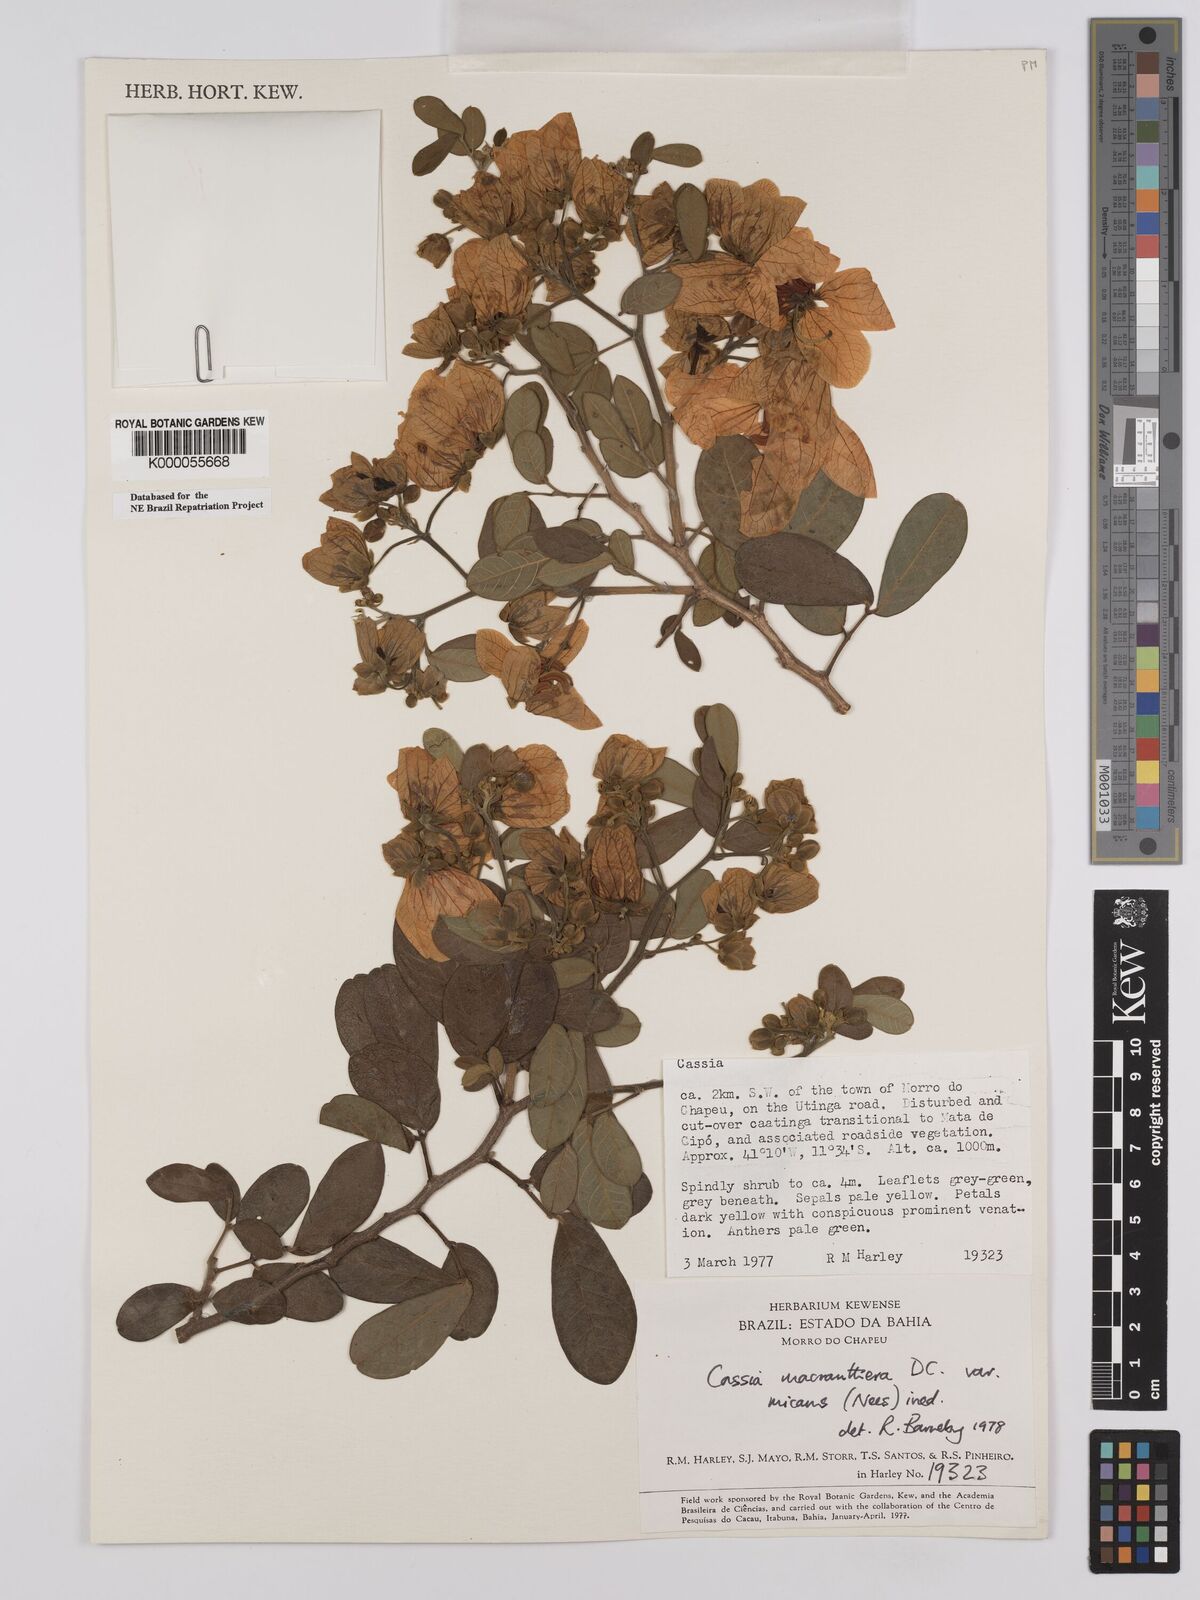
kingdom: Plantae
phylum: Tracheophyta
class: Magnoliopsida
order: Fabales
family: Fabaceae
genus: Senna
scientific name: Senna macranthera
